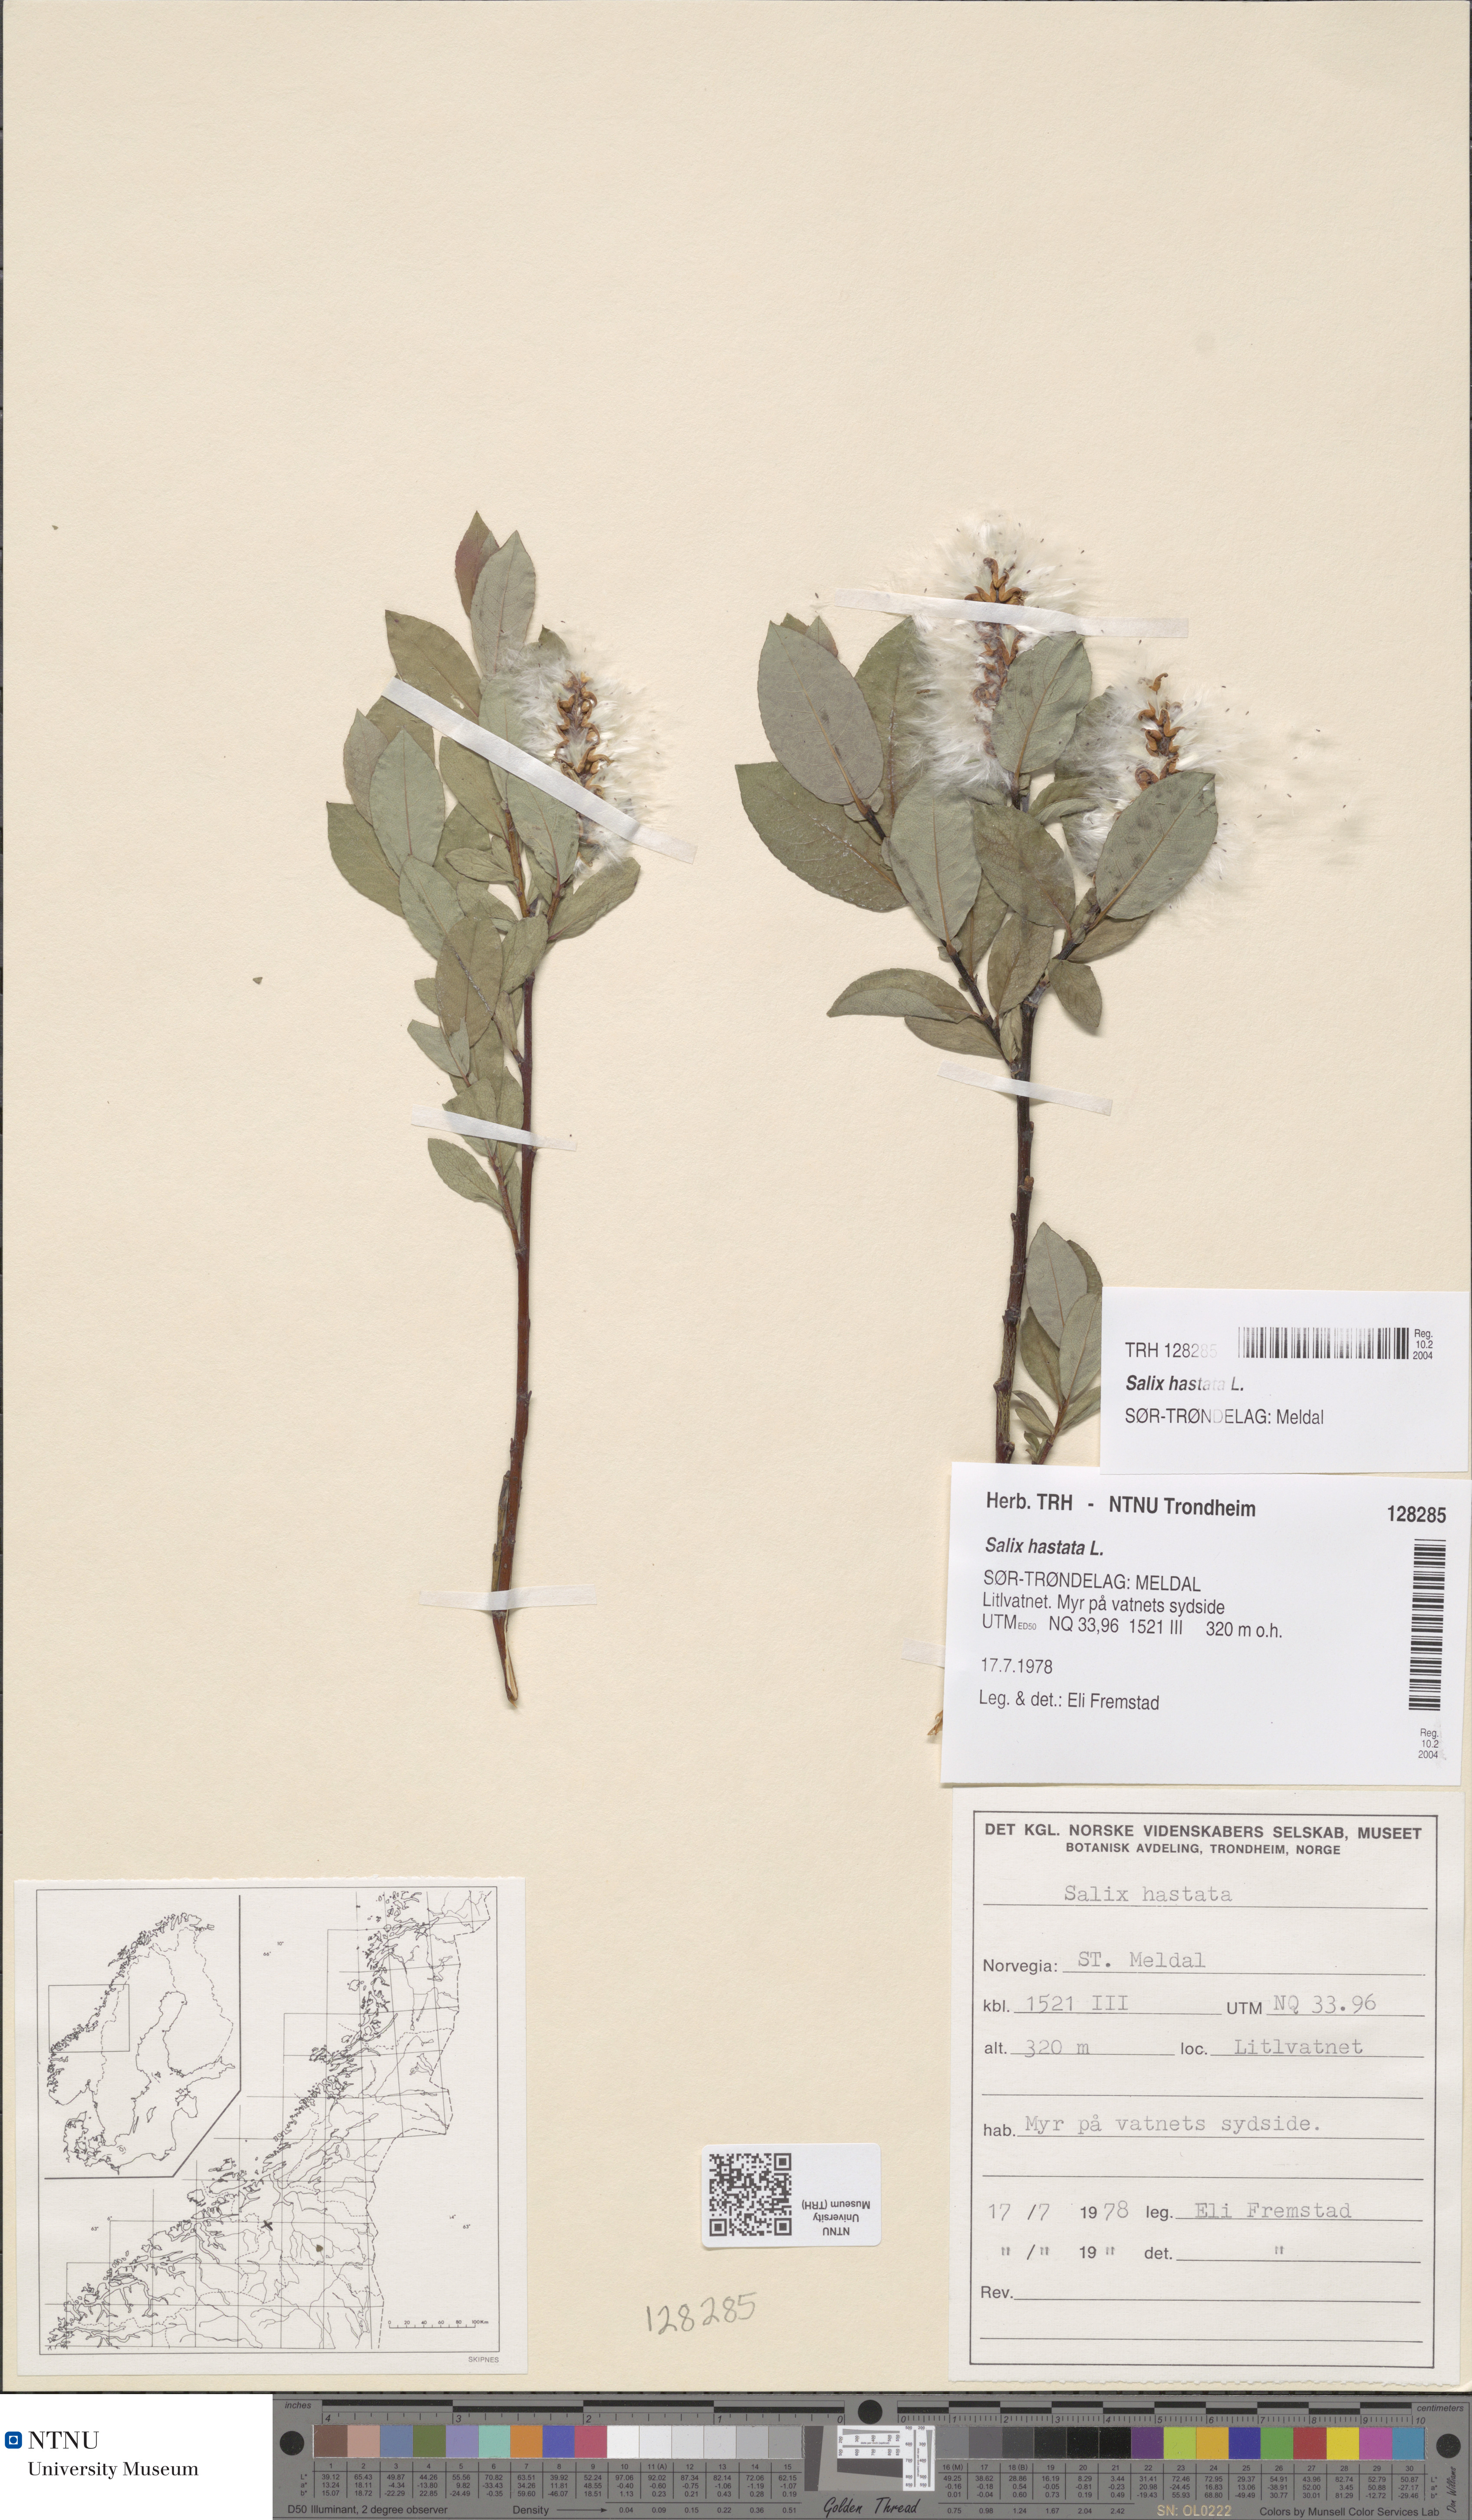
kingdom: Plantae
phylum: Tracheophyta
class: Magnoliopsida
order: Malpighiales
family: Salicaceae
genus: Salix
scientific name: Salix hastata
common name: Halberd willow
